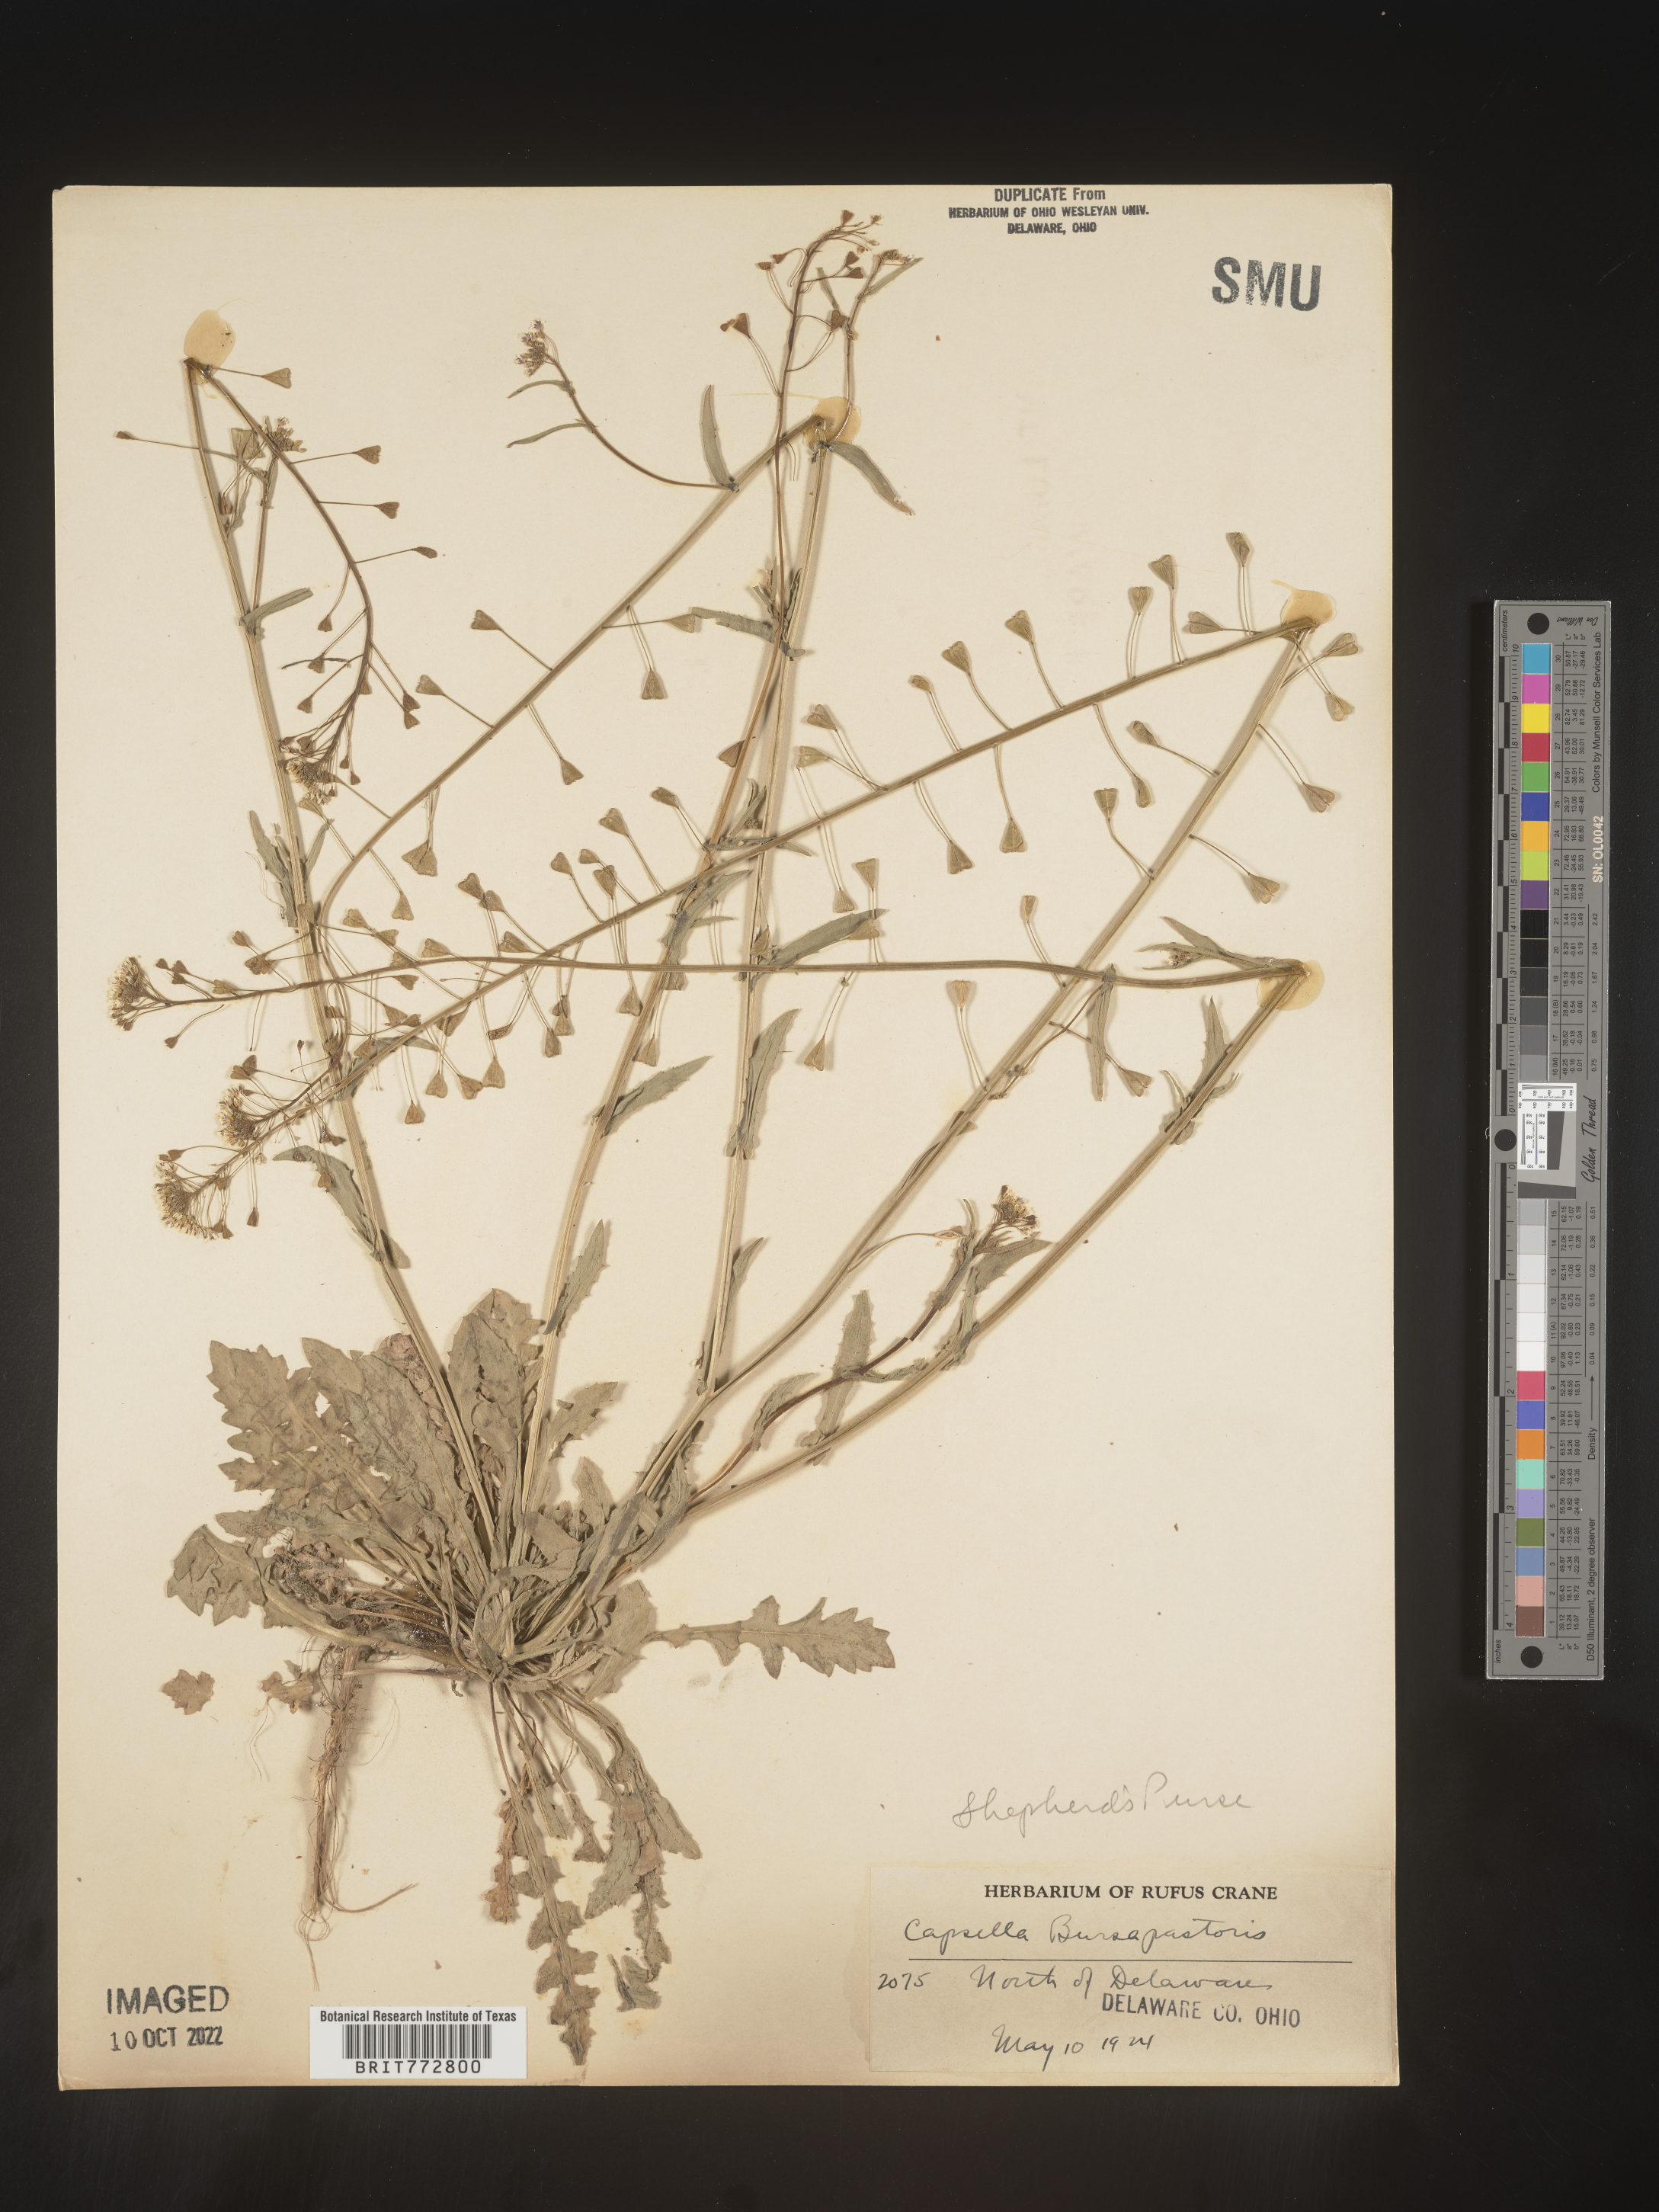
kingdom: Plantae
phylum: Tracheophyta
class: Magnoliopsida
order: Brassicales
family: Brassicaceae
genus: Capsella
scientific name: Capsella bursa-pastoris
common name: Shepherd's purse
